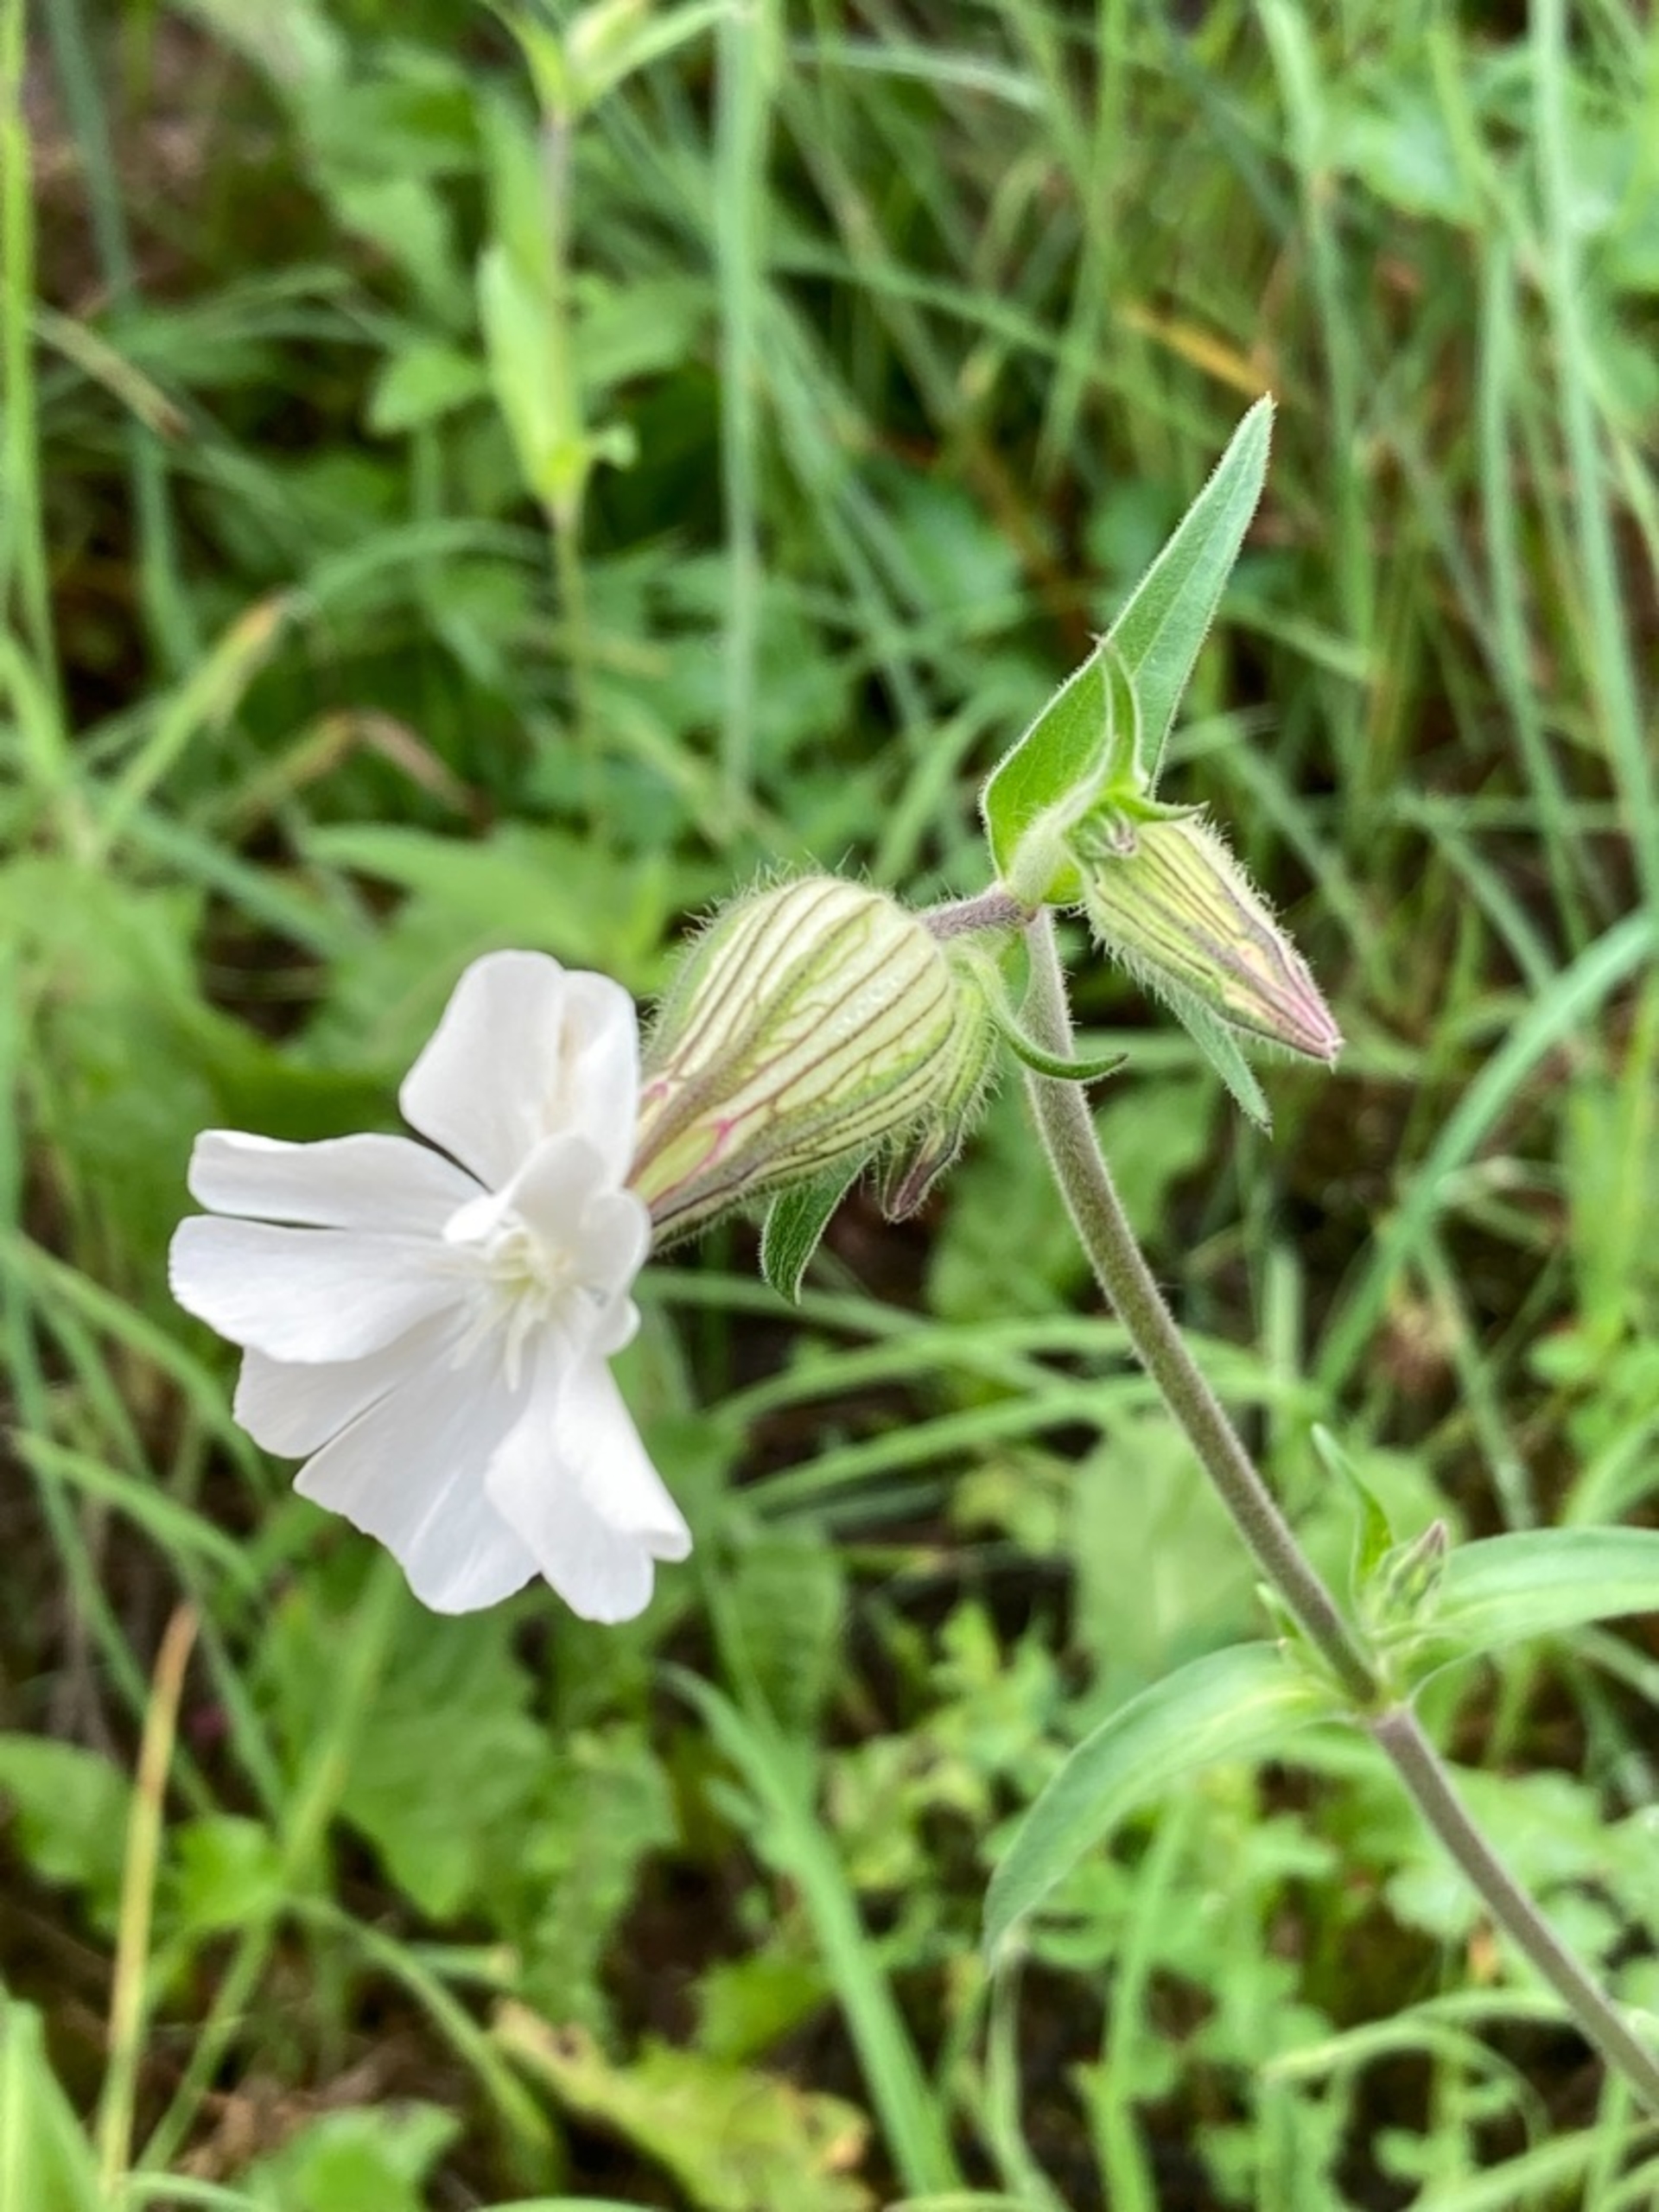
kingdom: Plantae
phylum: Tracheophyta
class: Magnoliopsida
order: Caryophyllales
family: Caryophyllaceae
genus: Silene
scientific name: Silene latifolia
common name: Aftenpragtstjerne
